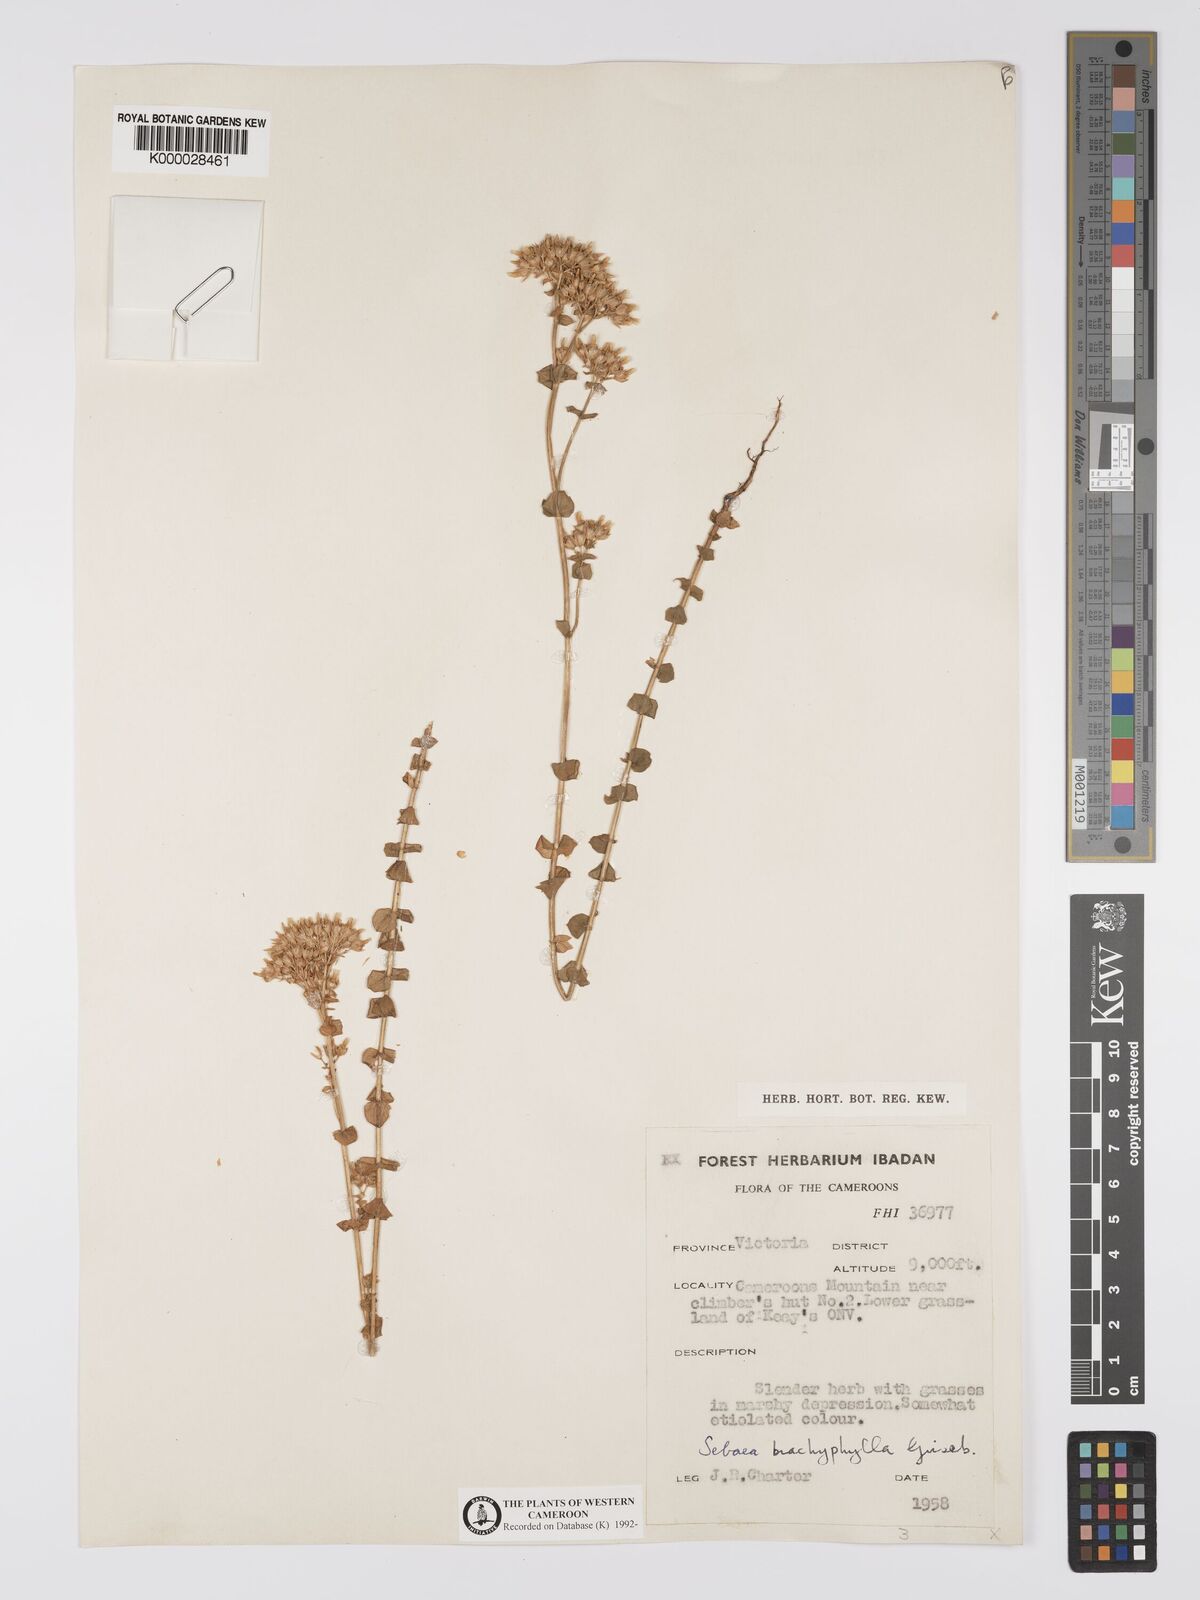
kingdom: Plantae
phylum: Tracheophyta
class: Magnoliopsida
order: Gentianales
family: Gentianaceae
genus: Sebaea
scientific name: Sebaea brachyphylla
